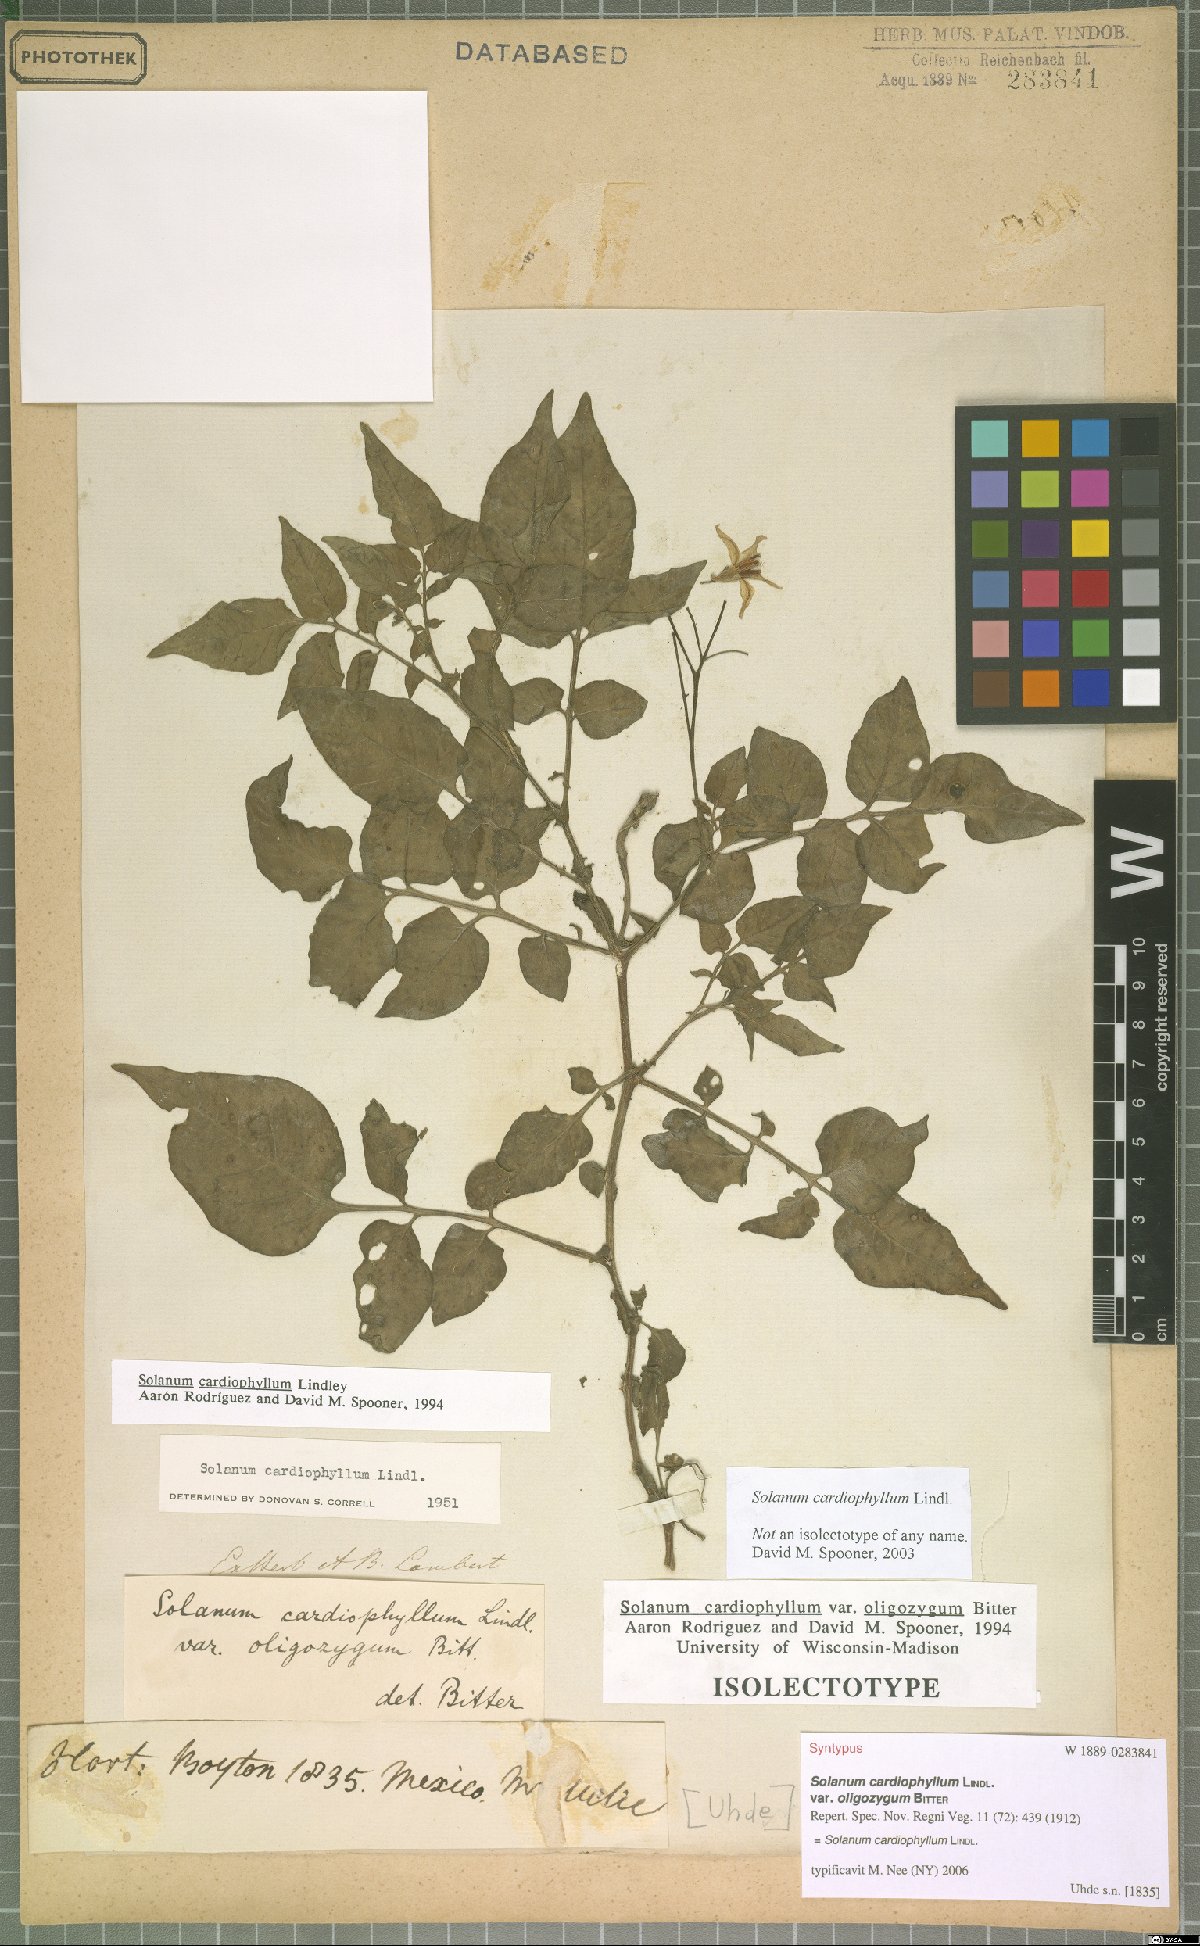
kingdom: Plantae
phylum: Tracheophyta
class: Magnoliopsida
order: Solanales
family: Solanaceae
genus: Solanum
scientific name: Solanum cardiophyllum
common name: Heartleaf horsenettle
